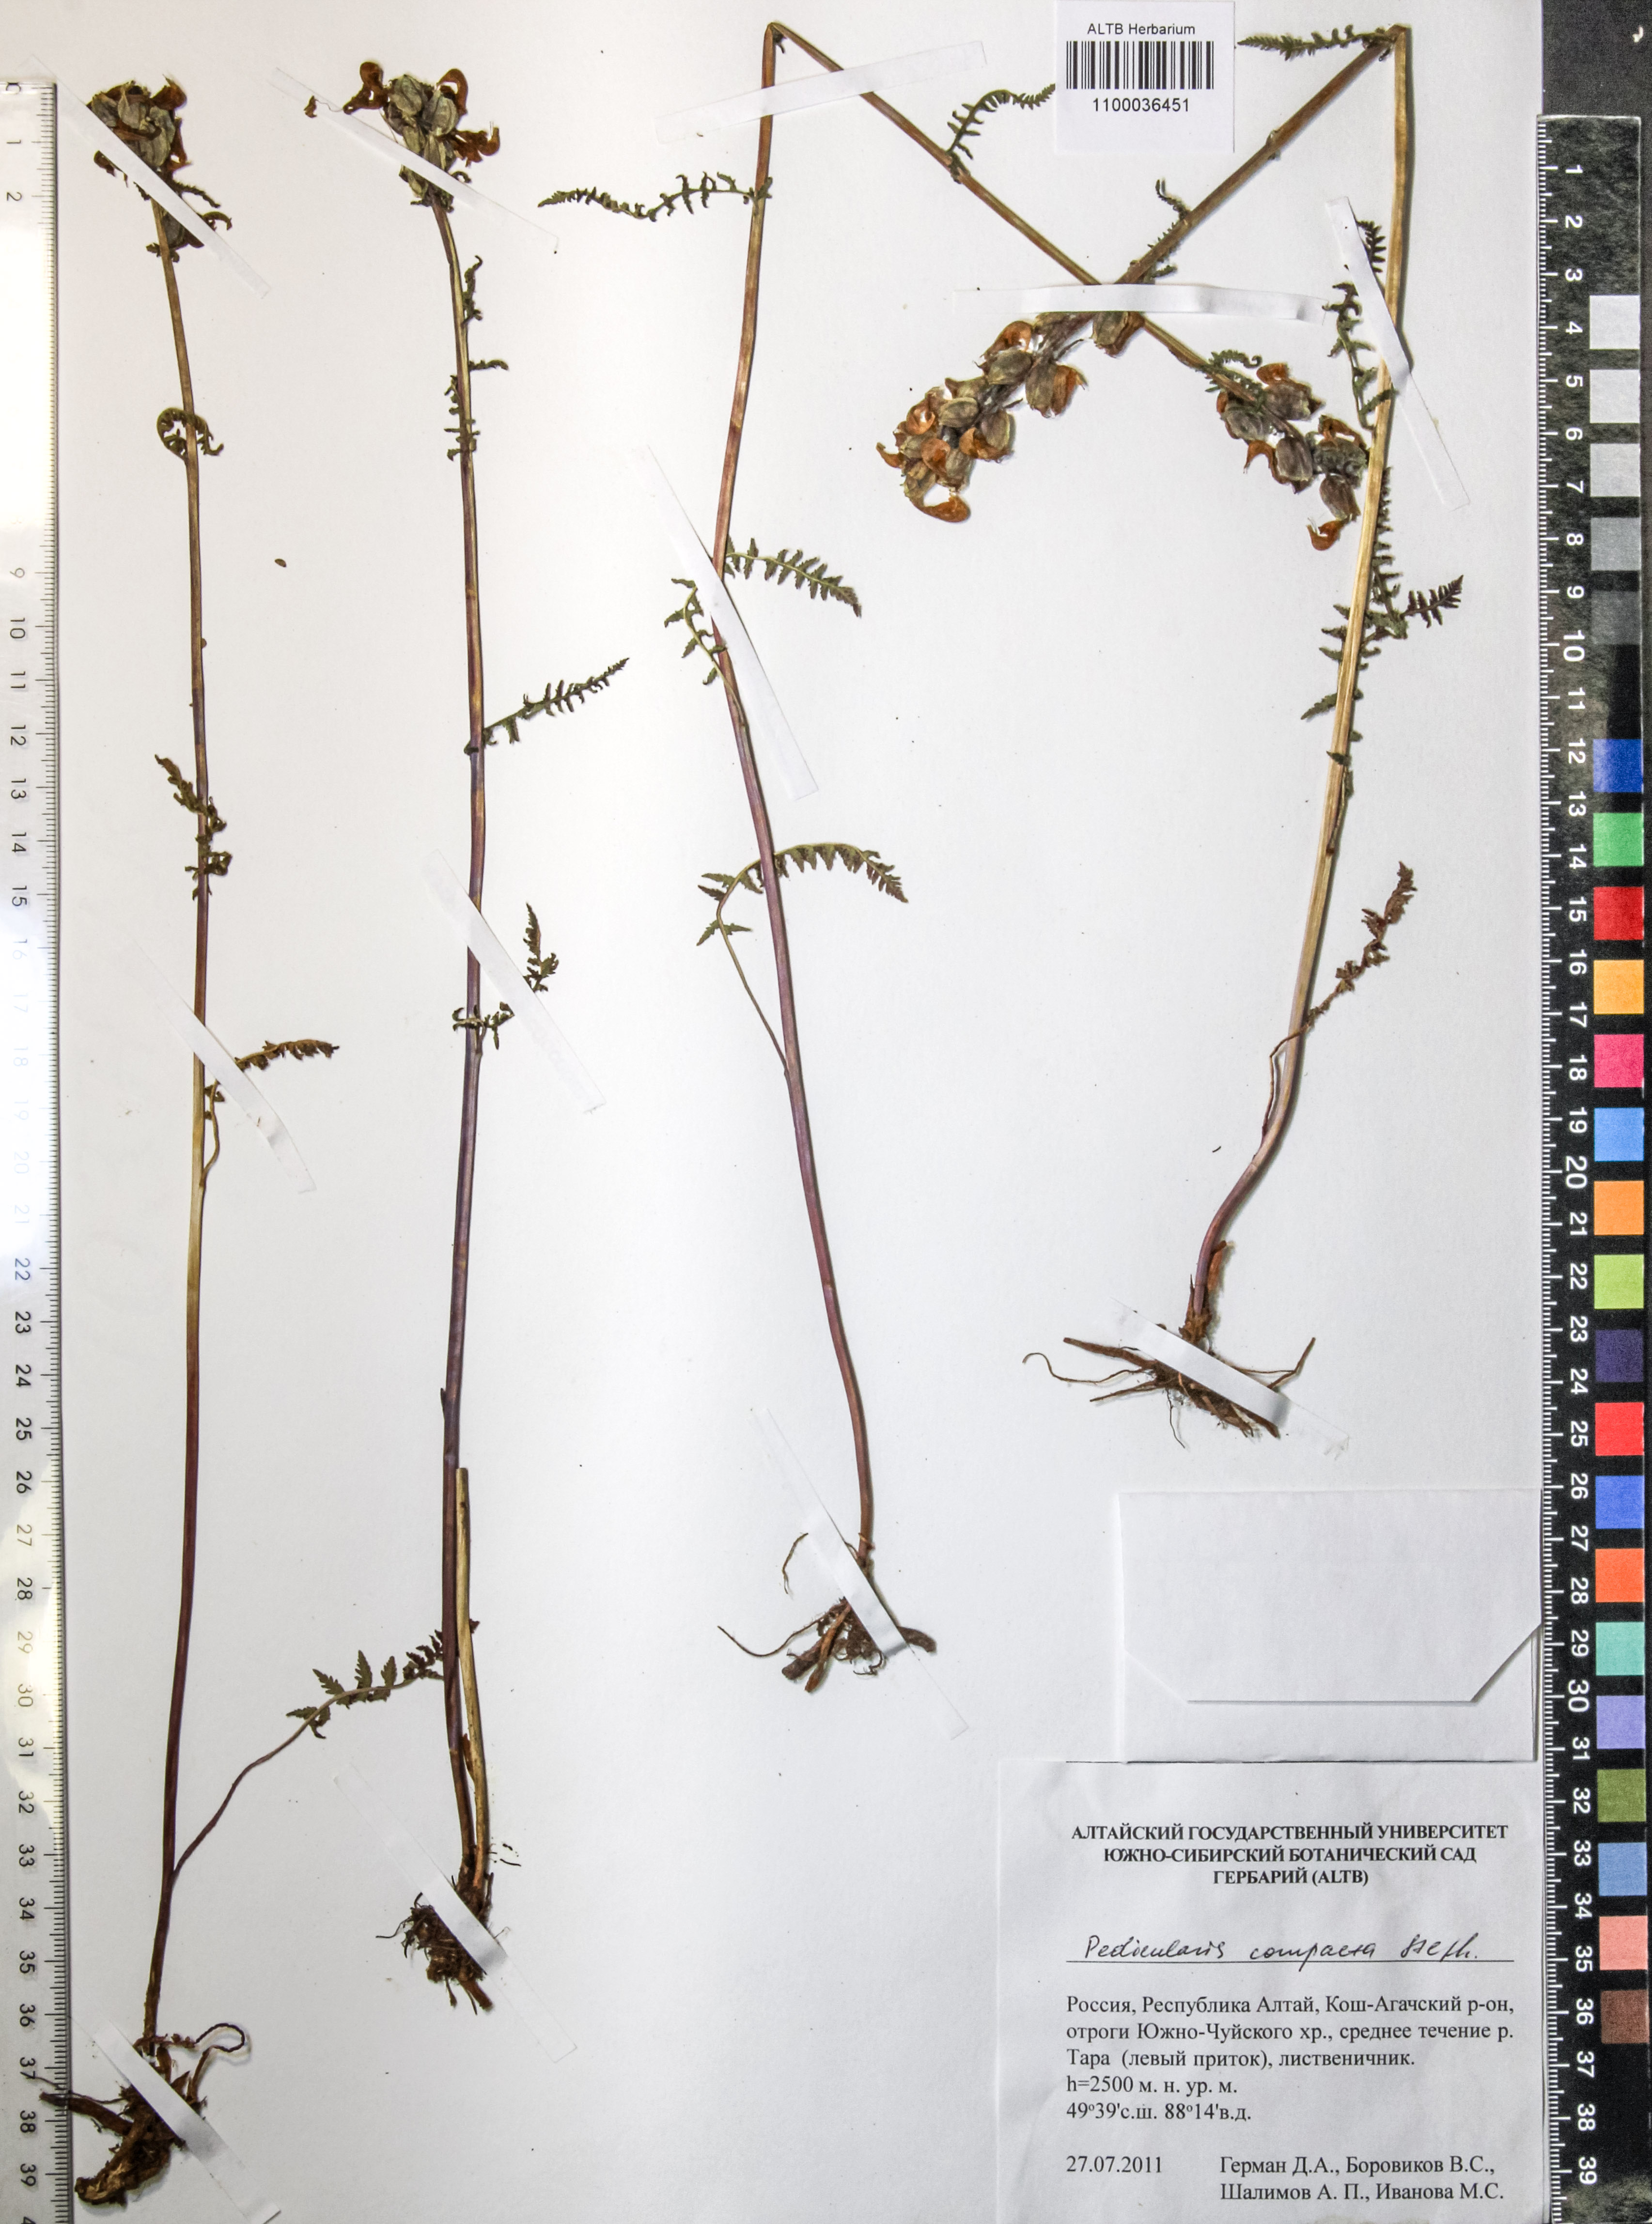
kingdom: Plantae
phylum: Tracheophyta
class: Magnoliopsida
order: Lamiales
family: Orobanchaceae
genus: Pedicularis
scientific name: Pedicularis compacta
